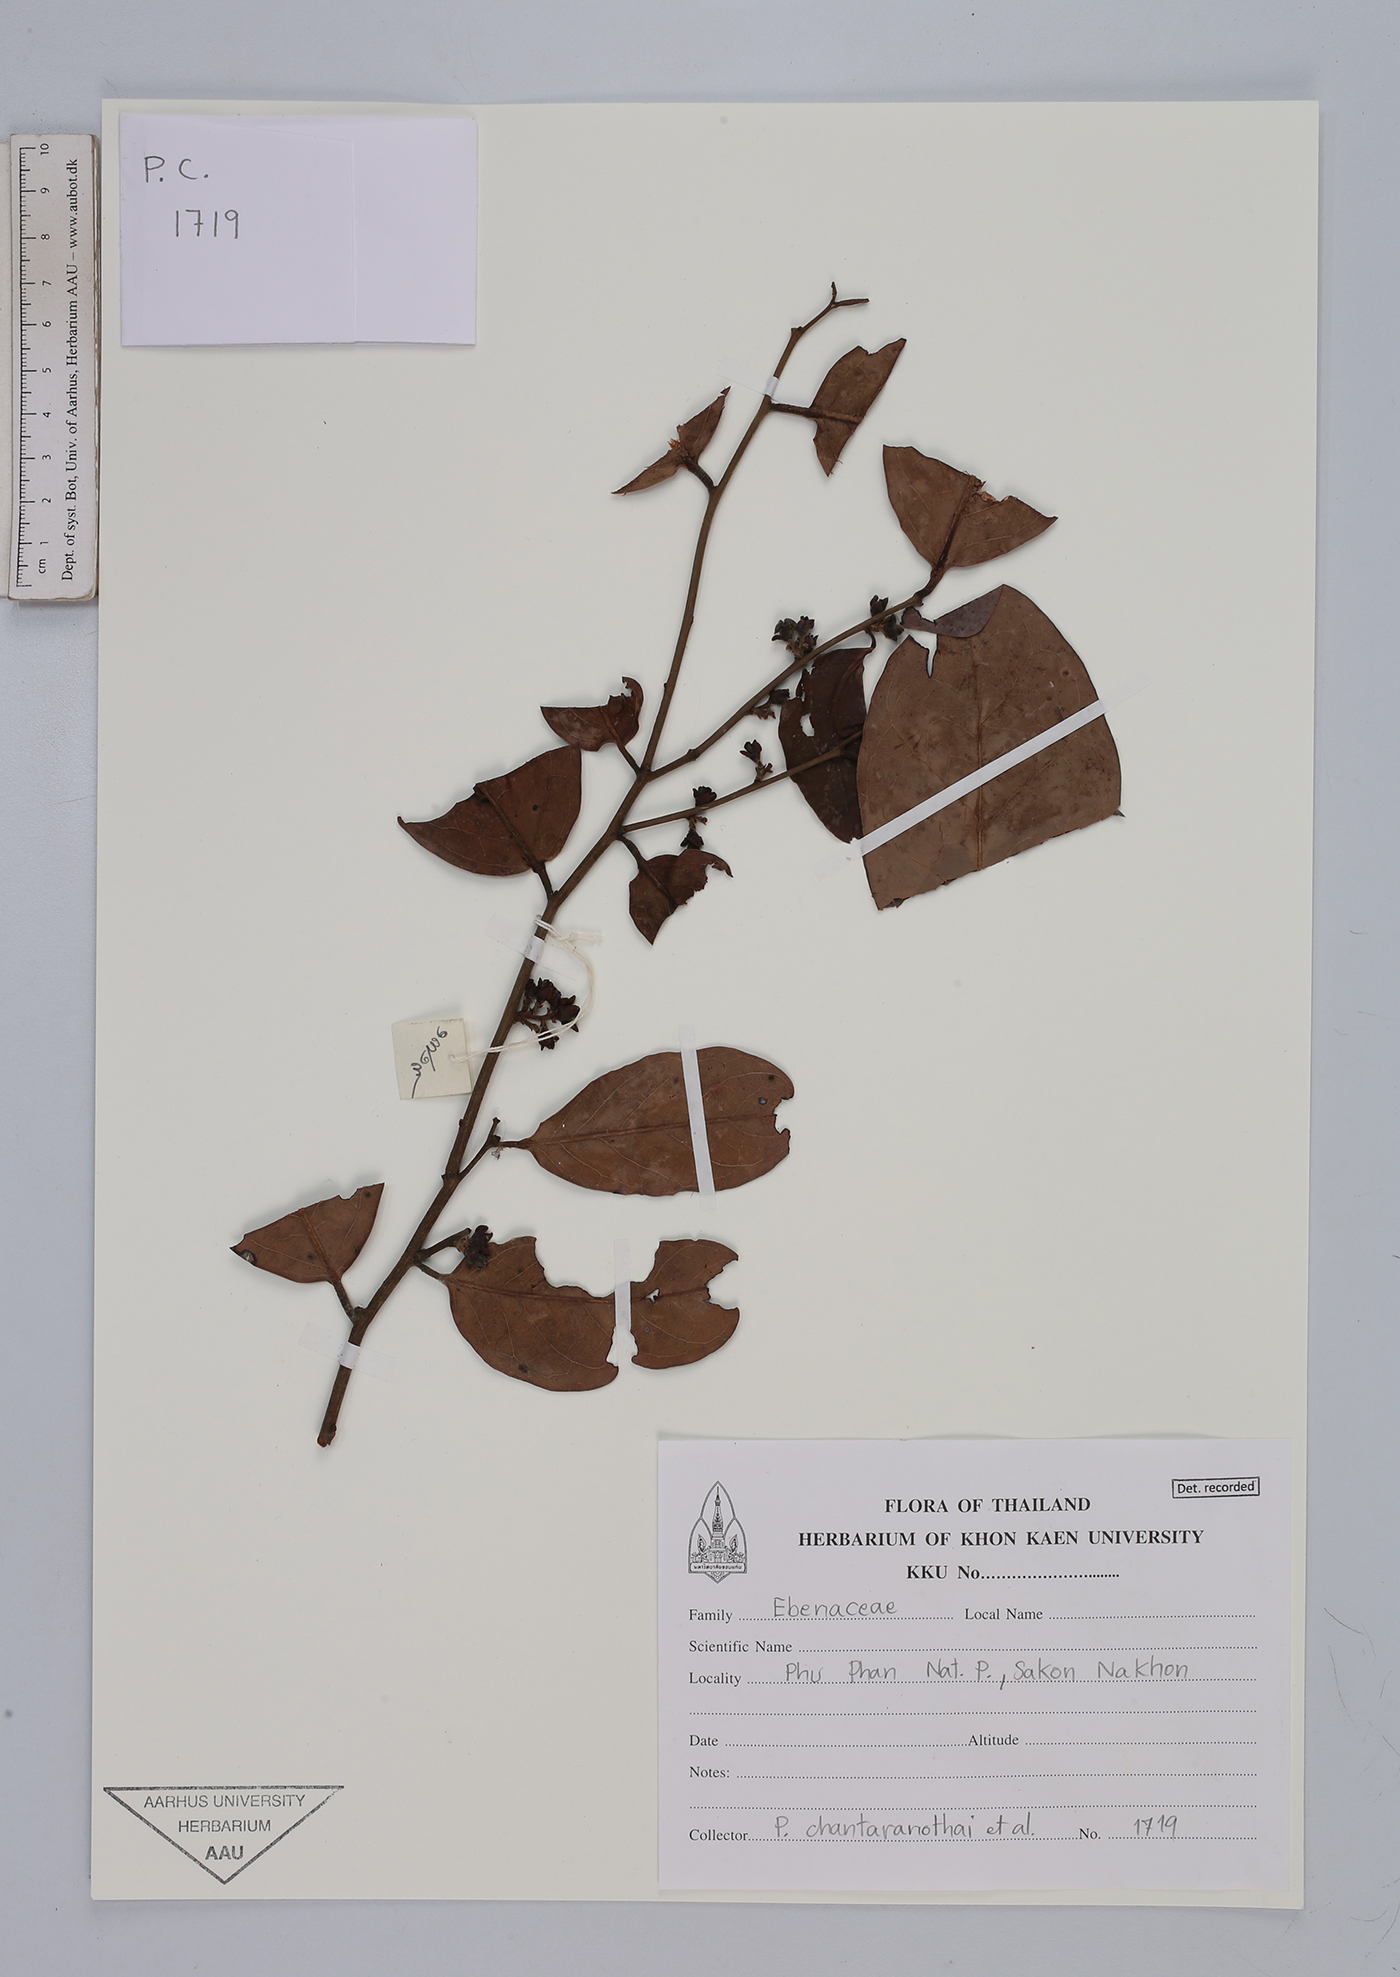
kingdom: Plantae
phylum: Tracheophyta
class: Magnoliopsida
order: Ericales
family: Ebenaceae
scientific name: Ebenaceae
